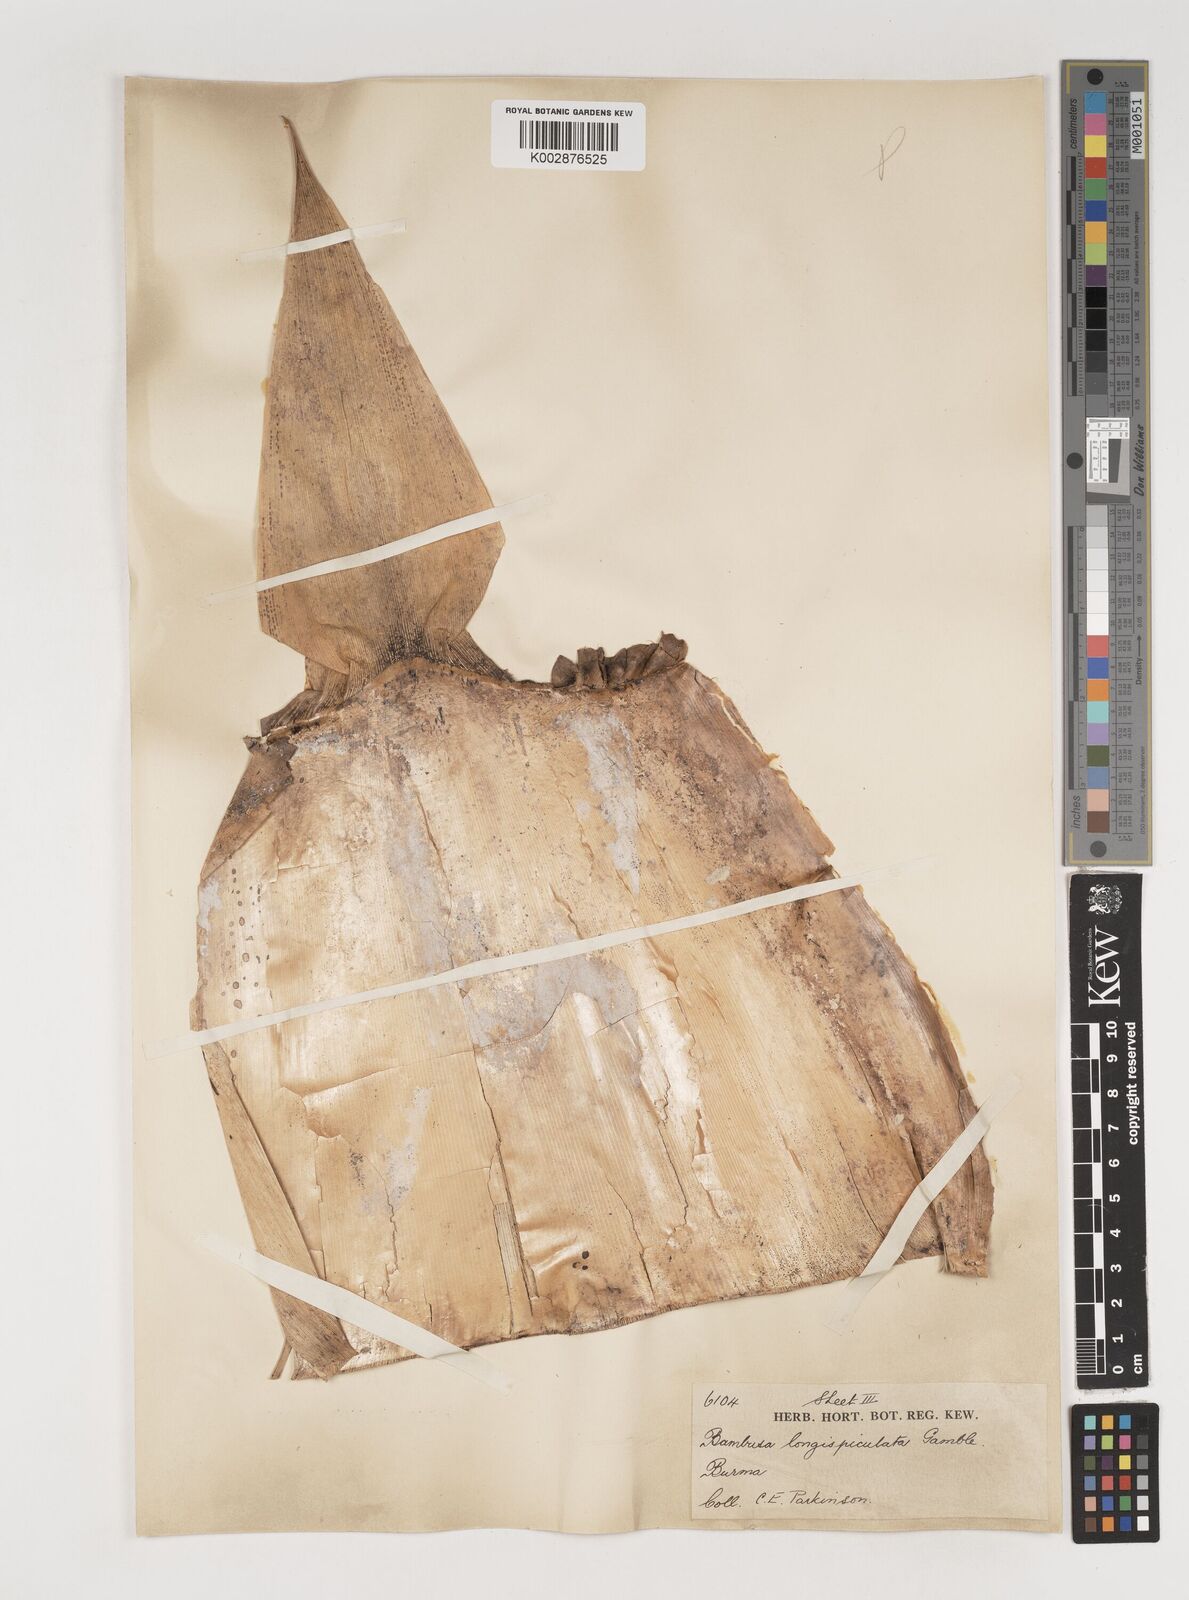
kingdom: Plantae
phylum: Tracheophyta
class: Liliopsida
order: Poales
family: Poaceae
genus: Bambusa
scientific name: Bambusa longispiculata
